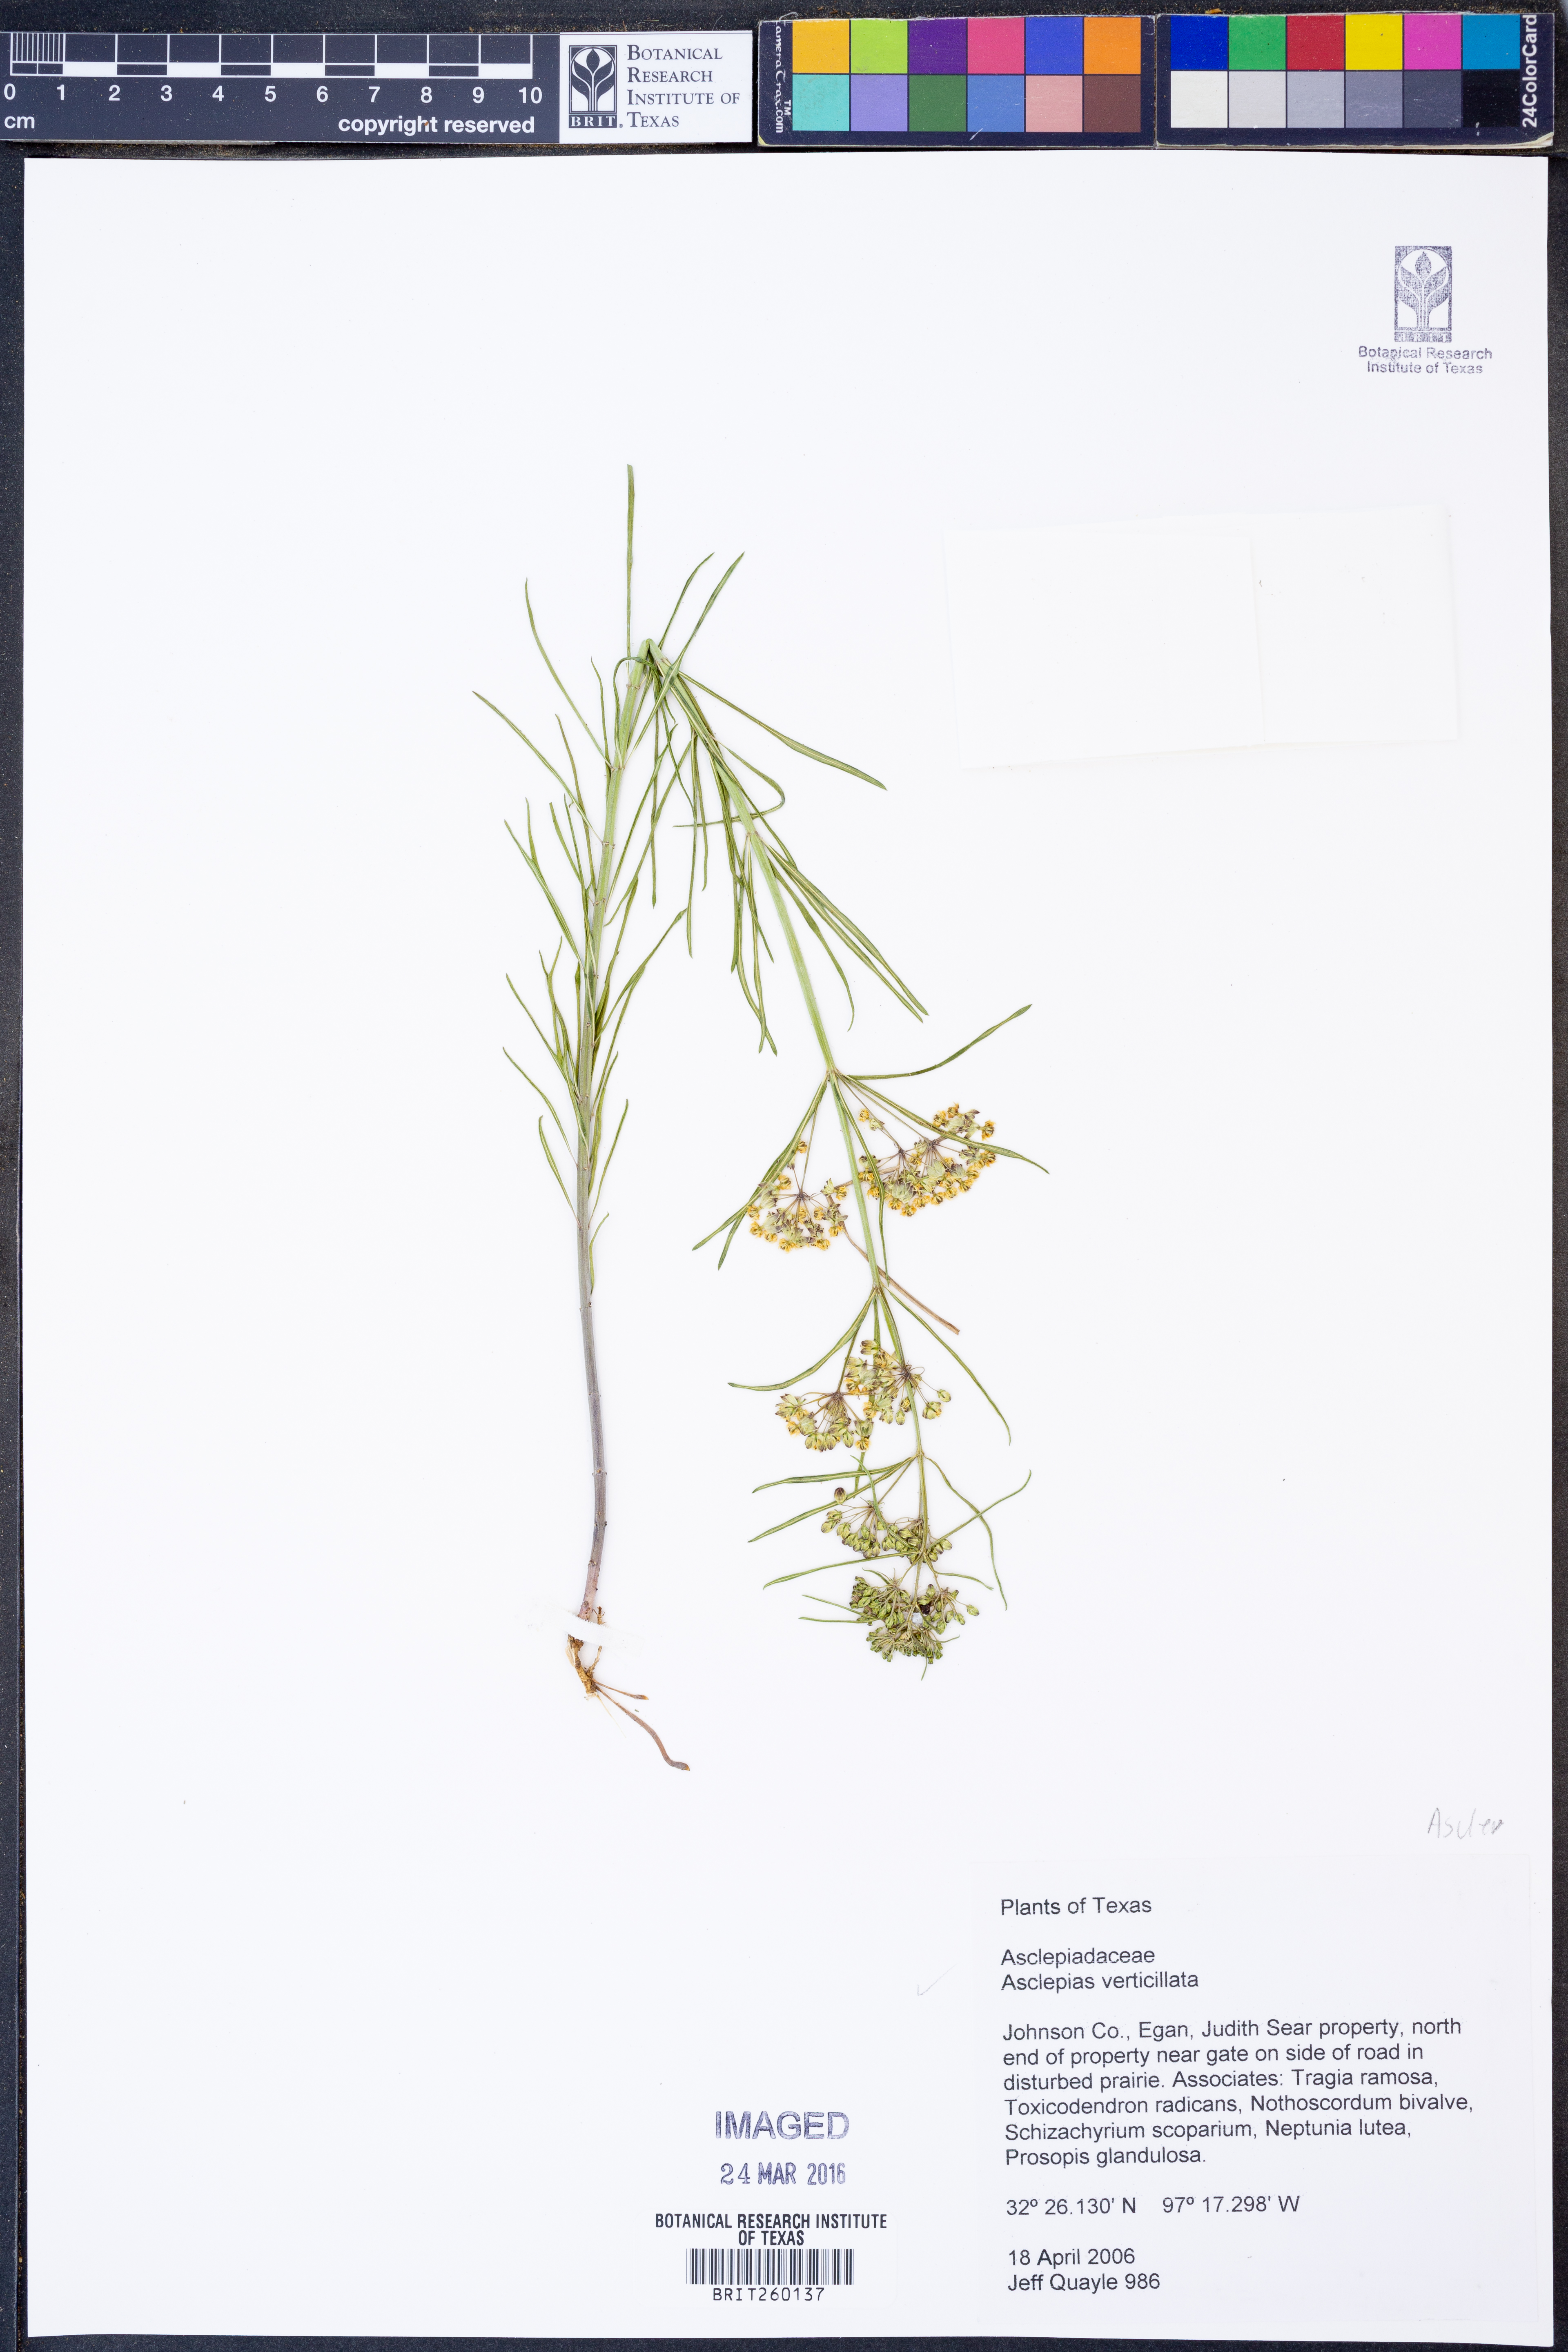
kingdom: Plantae
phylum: Tracheophyta
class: Magnoliopsida
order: Gentianales
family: Apocynaceae
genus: Asclepias
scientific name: Asclepias verticillata
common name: Eastern whorled milkweed
